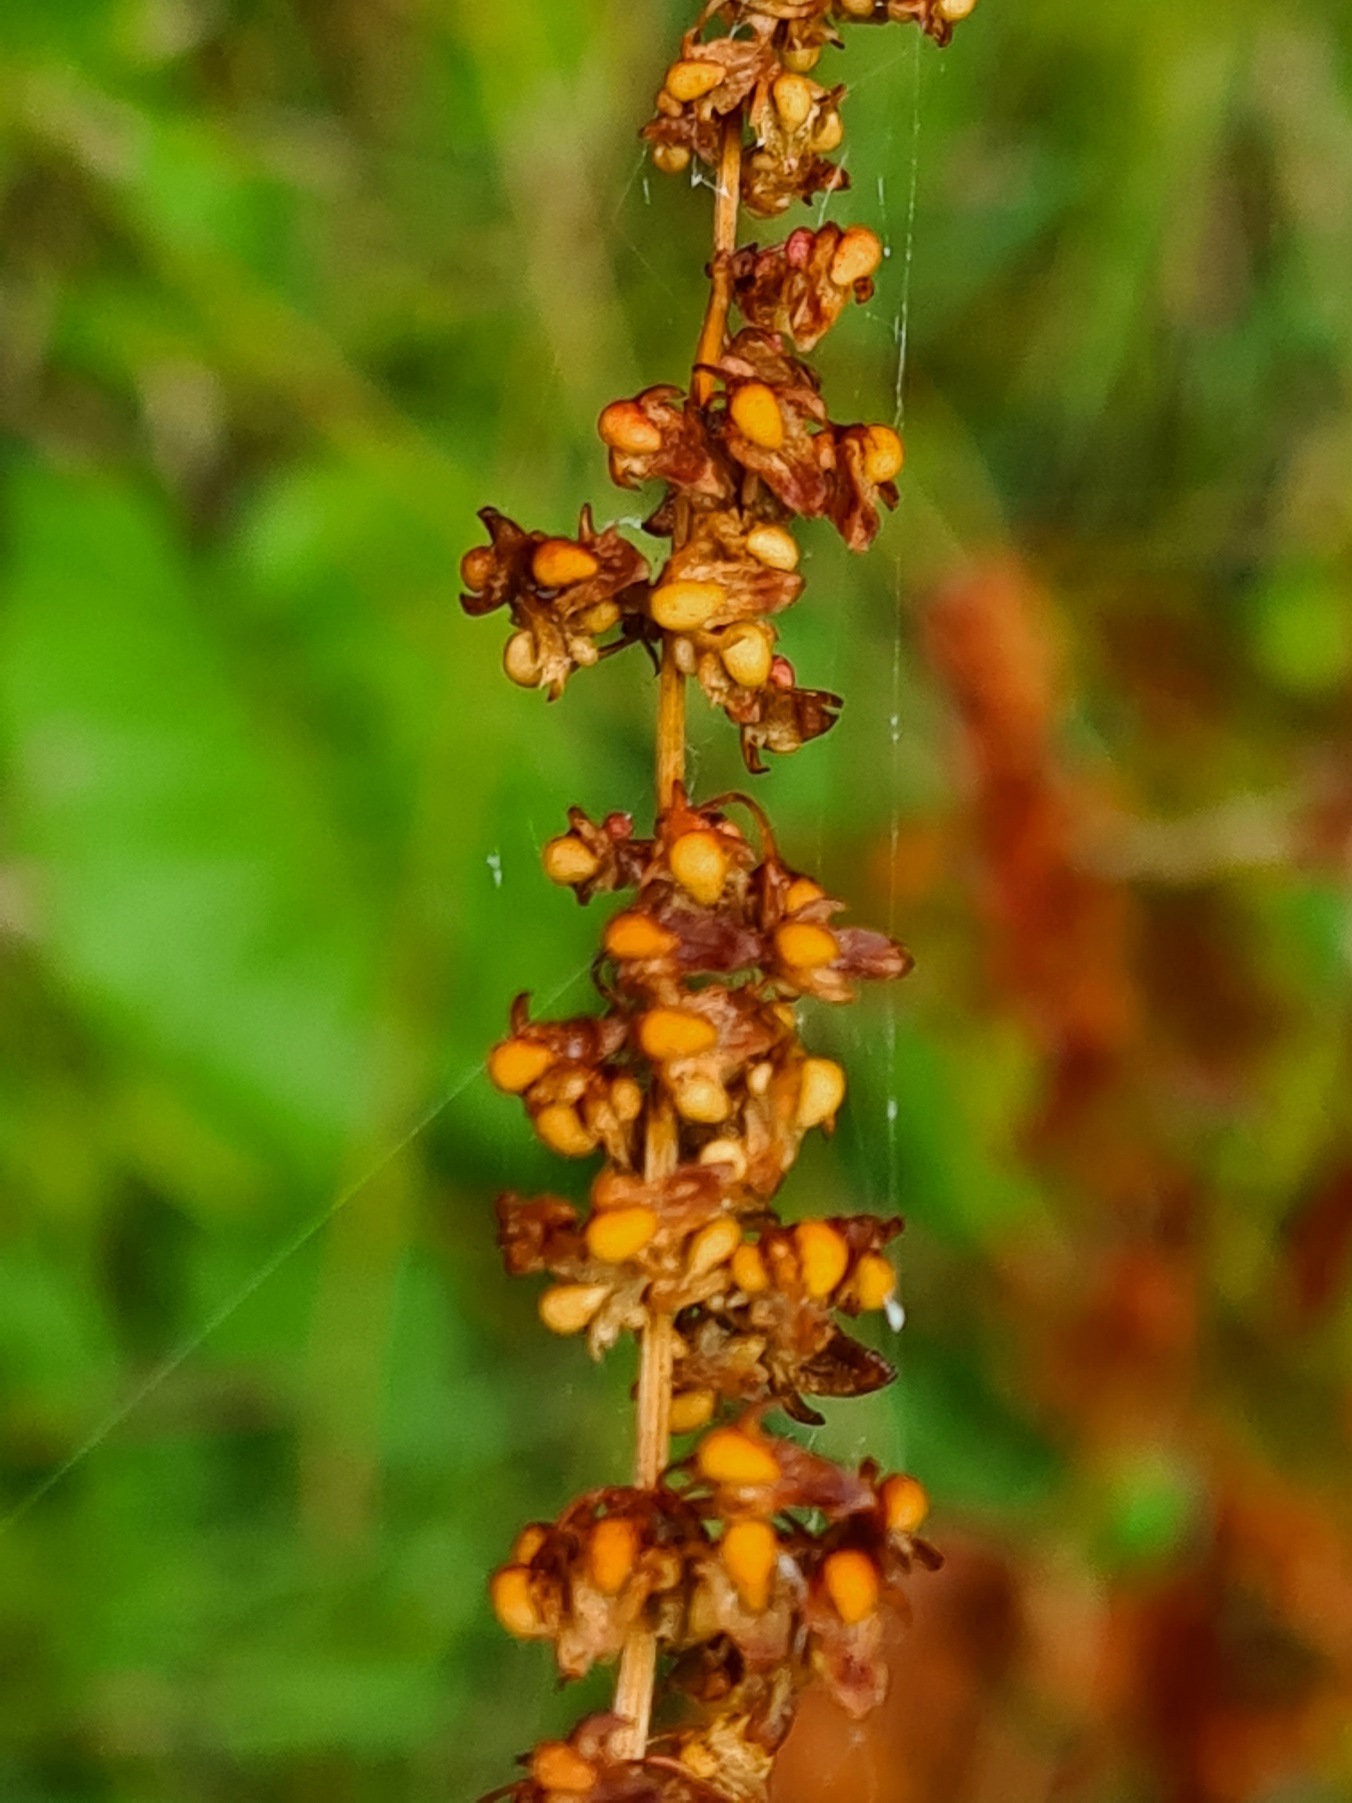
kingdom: Plantae
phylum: Tracheophyta
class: Magnoliopsida
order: Caryophyllales
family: Polygonaceae
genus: Rumex
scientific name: Rumex sanguineus
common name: Skov-skræppe
